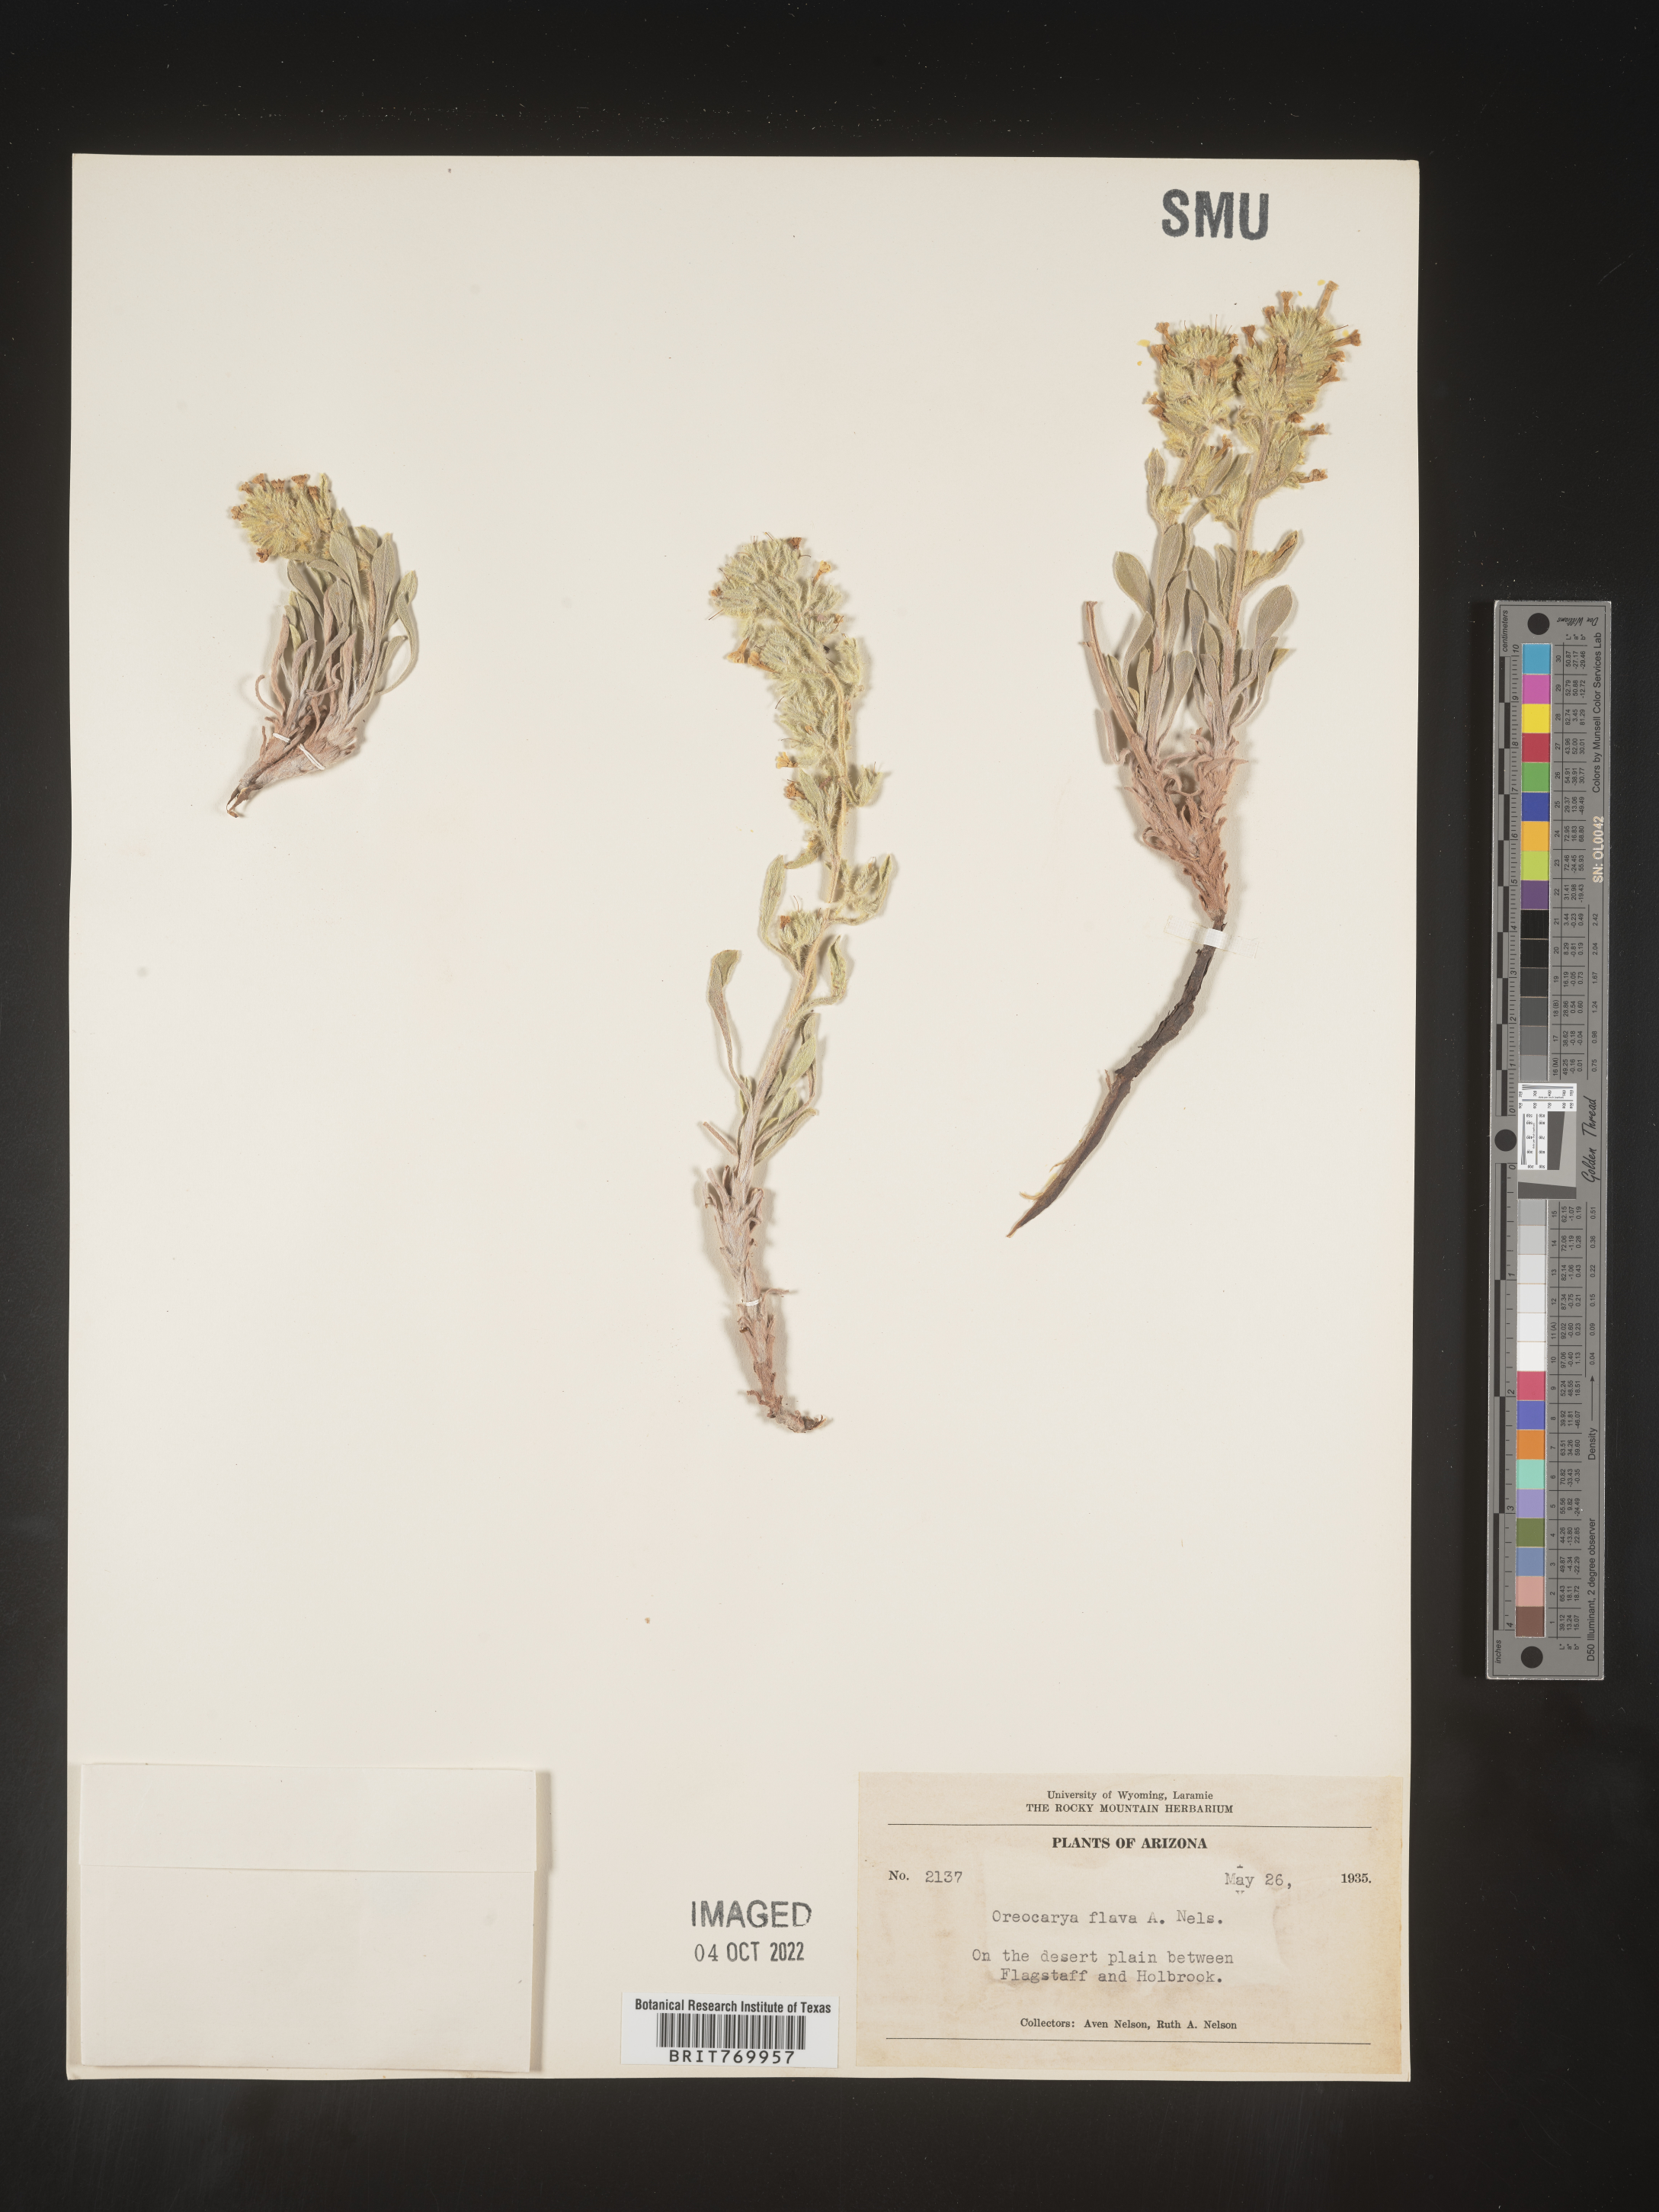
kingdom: Plantae
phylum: Tracheophyta
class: Magnoliopsida
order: Boraginales
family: Boraginaceae
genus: Oreocarya
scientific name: Oreocarya
